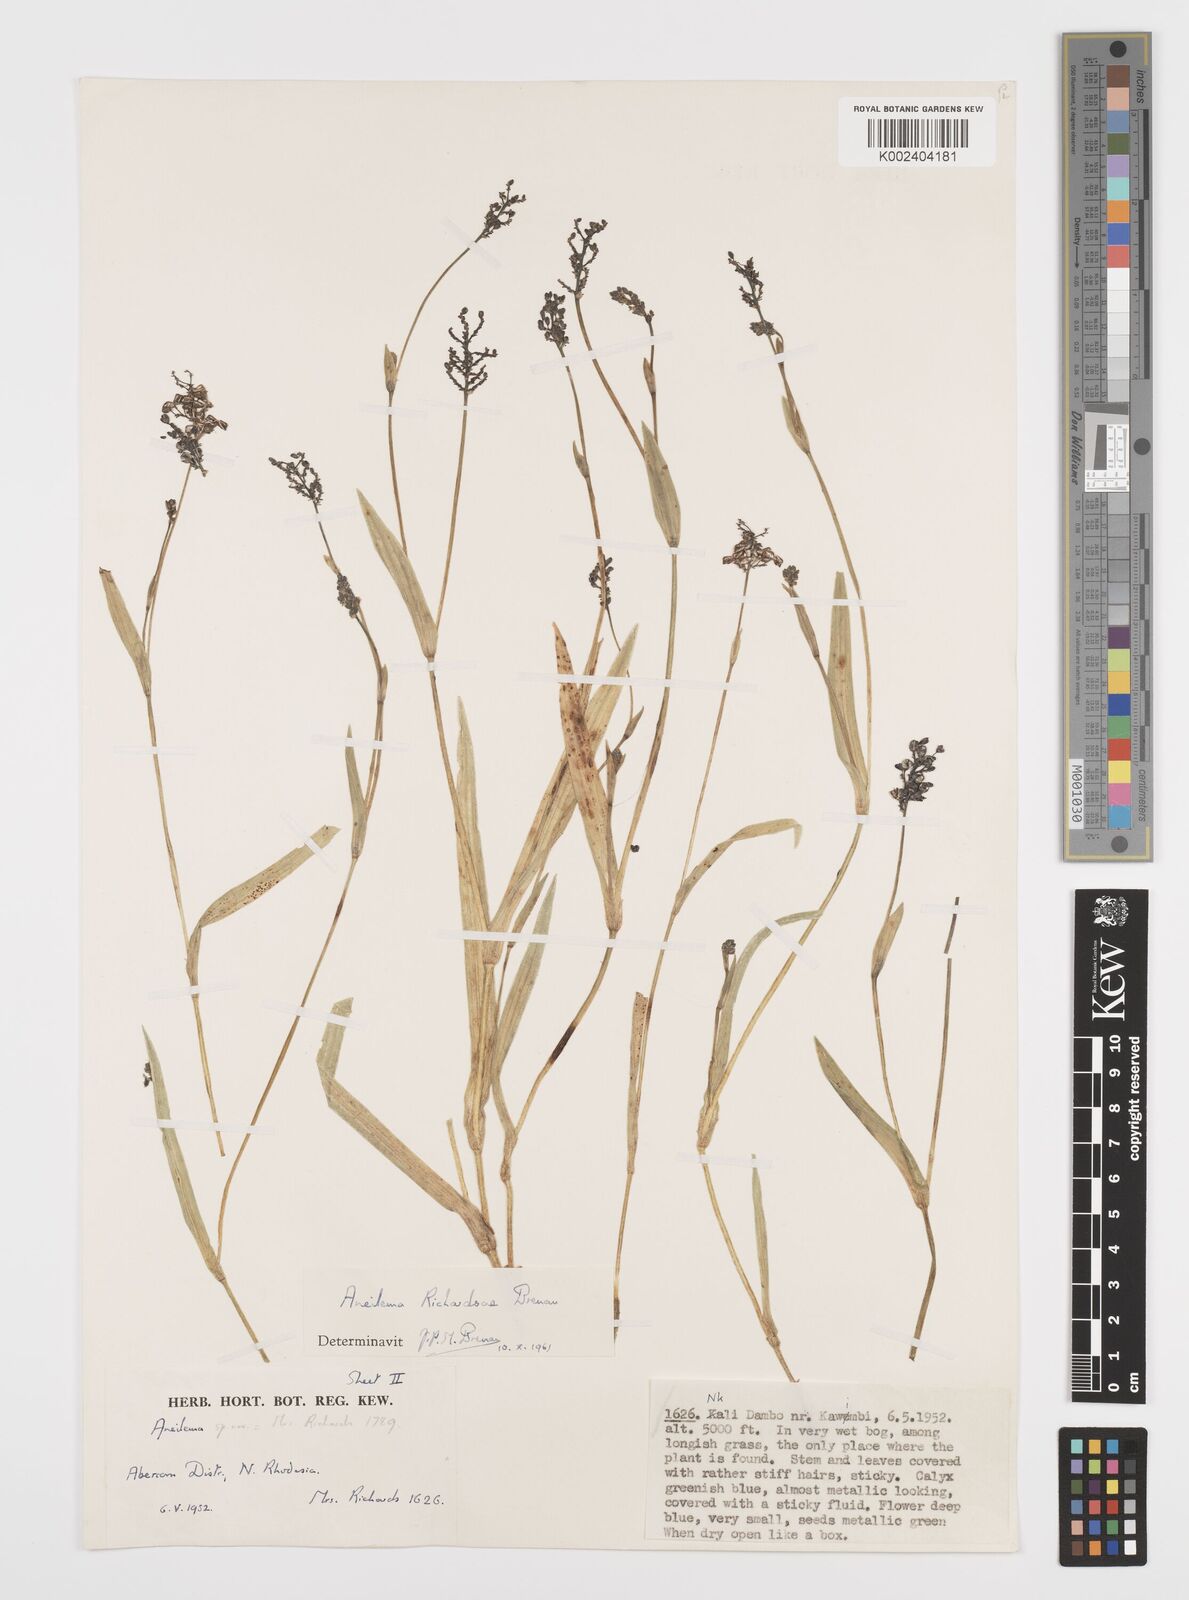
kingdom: Plantae
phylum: Tracheophyta
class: Liliopsida
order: Commelinales
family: Commelinaceae
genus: Aneilema
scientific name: Aneilema richardsiae
